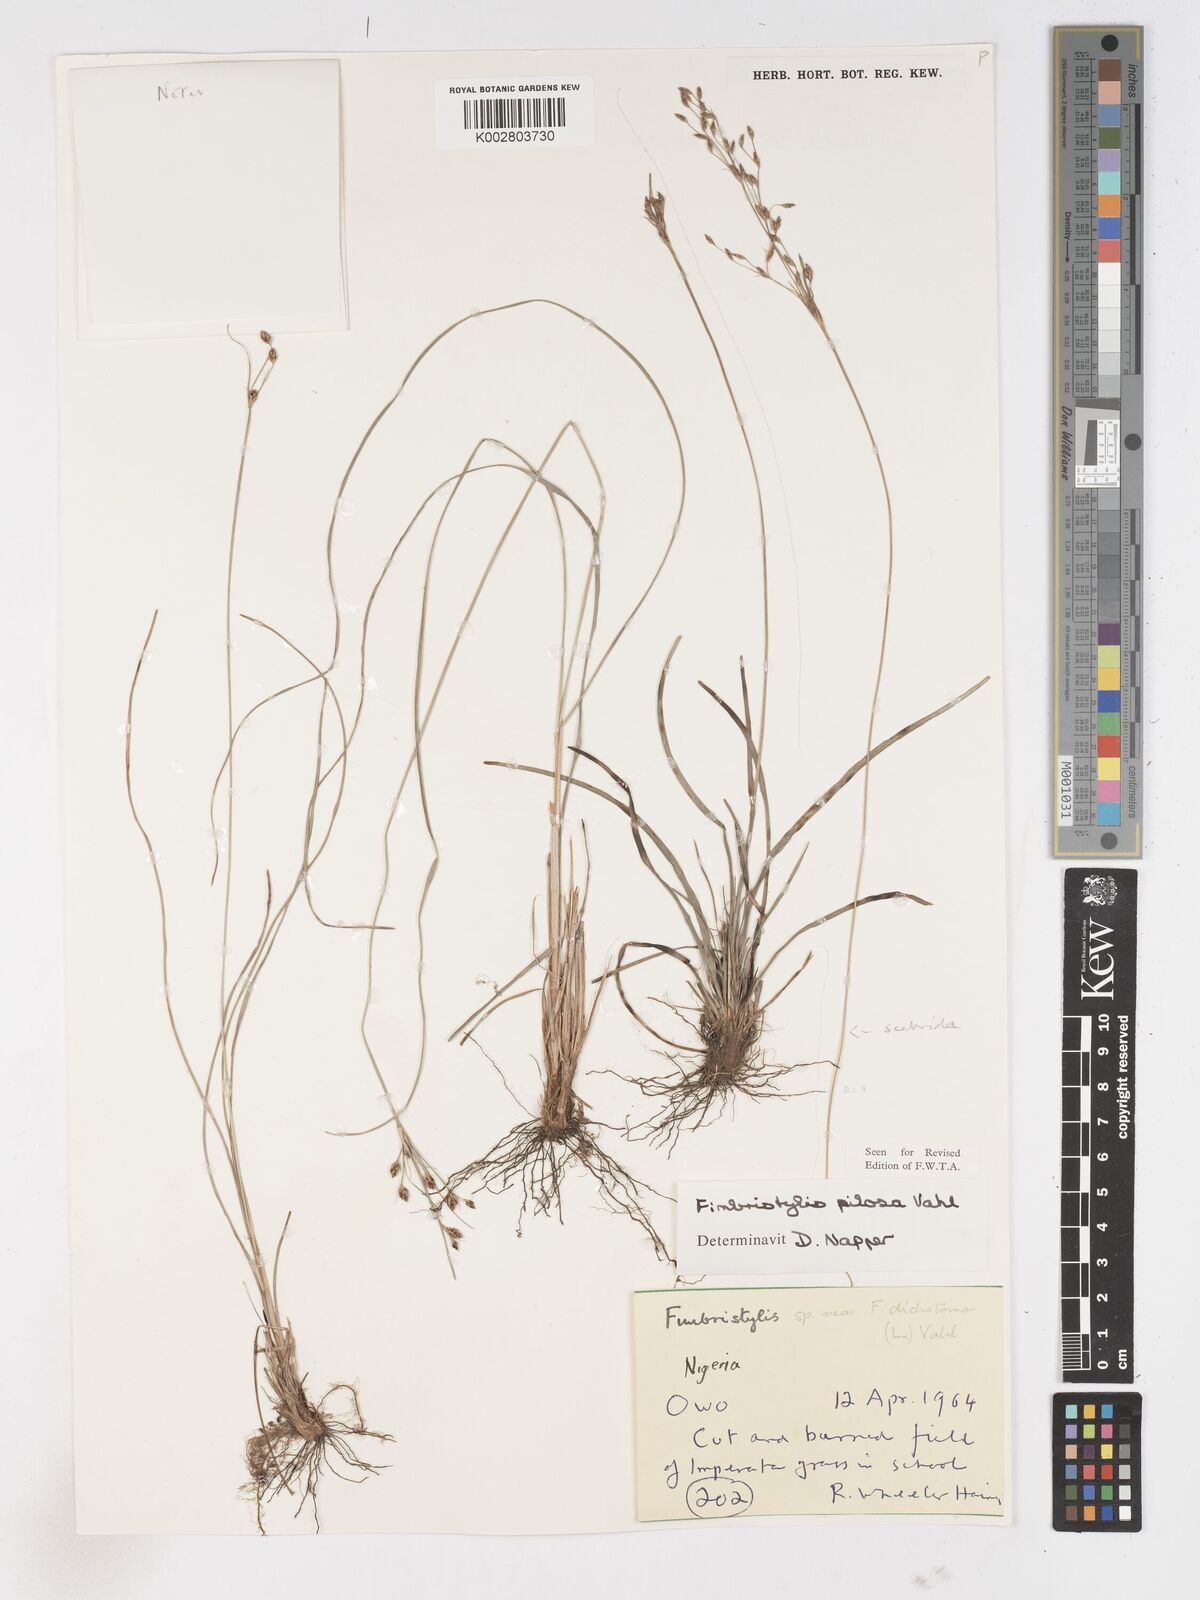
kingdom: Plantae
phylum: Tracheophyta
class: Liliopsida
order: Poales
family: Cyperaceae
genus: Fimbristylis
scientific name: Fimbristylis pilosa
